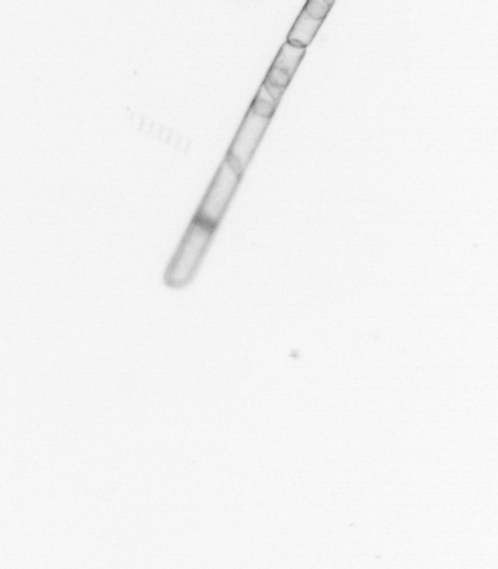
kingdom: Chromista
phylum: Ochrophyta
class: Bacillariophyceae
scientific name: Bacillariophyceae
